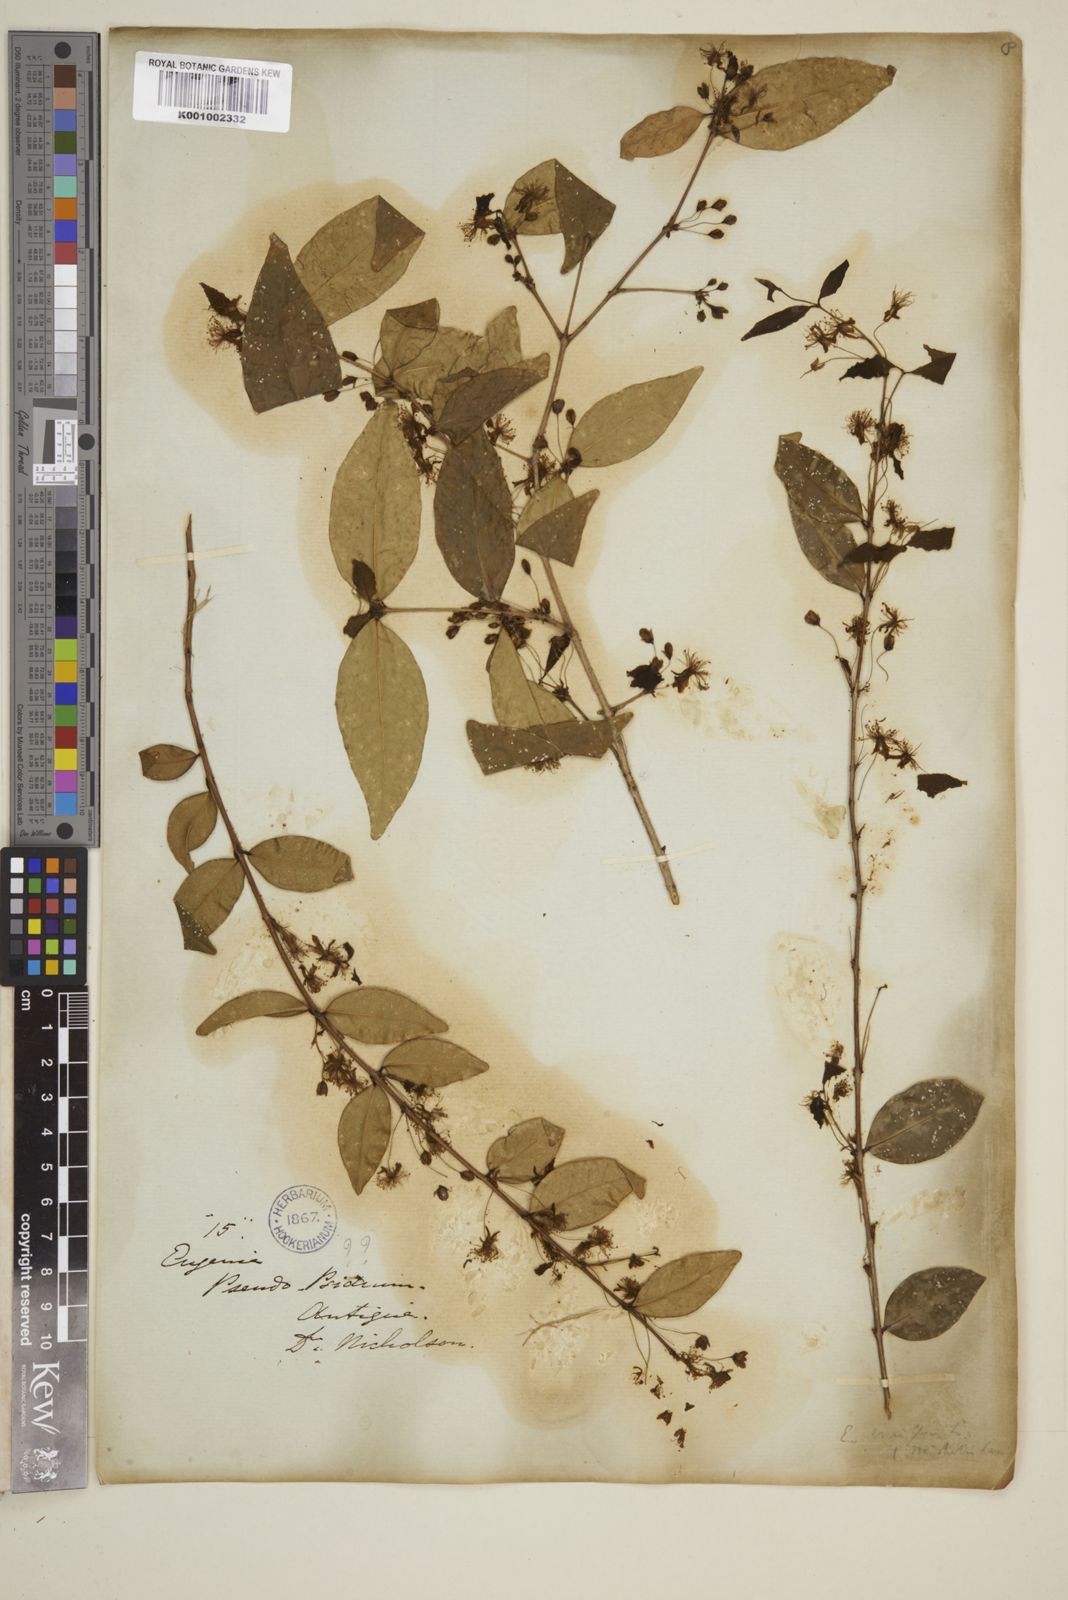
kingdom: Plantae
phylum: Tracheophyta
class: Magnoliopsida
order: Myrtales
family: Myrtaceae
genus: Eugenia
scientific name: Eugenia uniflora
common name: Surinam cherry
